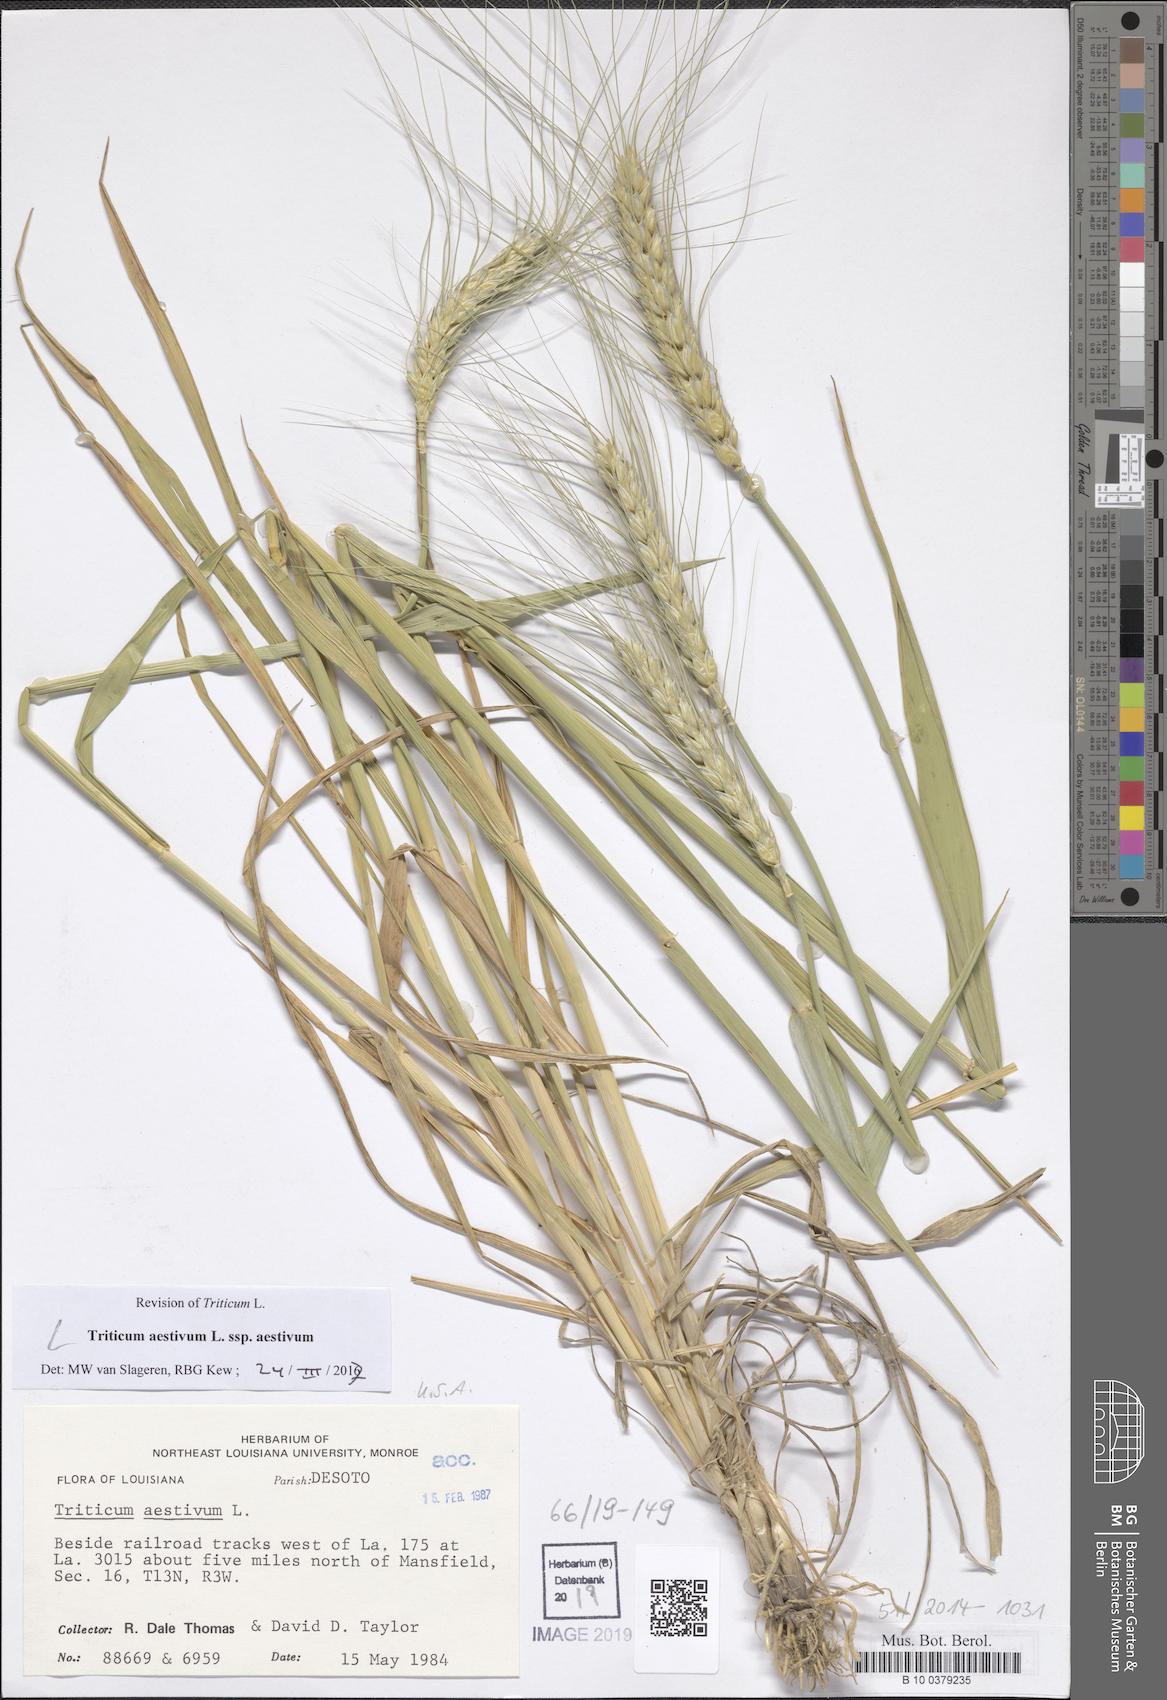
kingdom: Plantae
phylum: Tracheophyta
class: Liliopsida
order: Poales
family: Poaceae
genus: Triticum
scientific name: Triticum aestivum
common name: Common wheat
